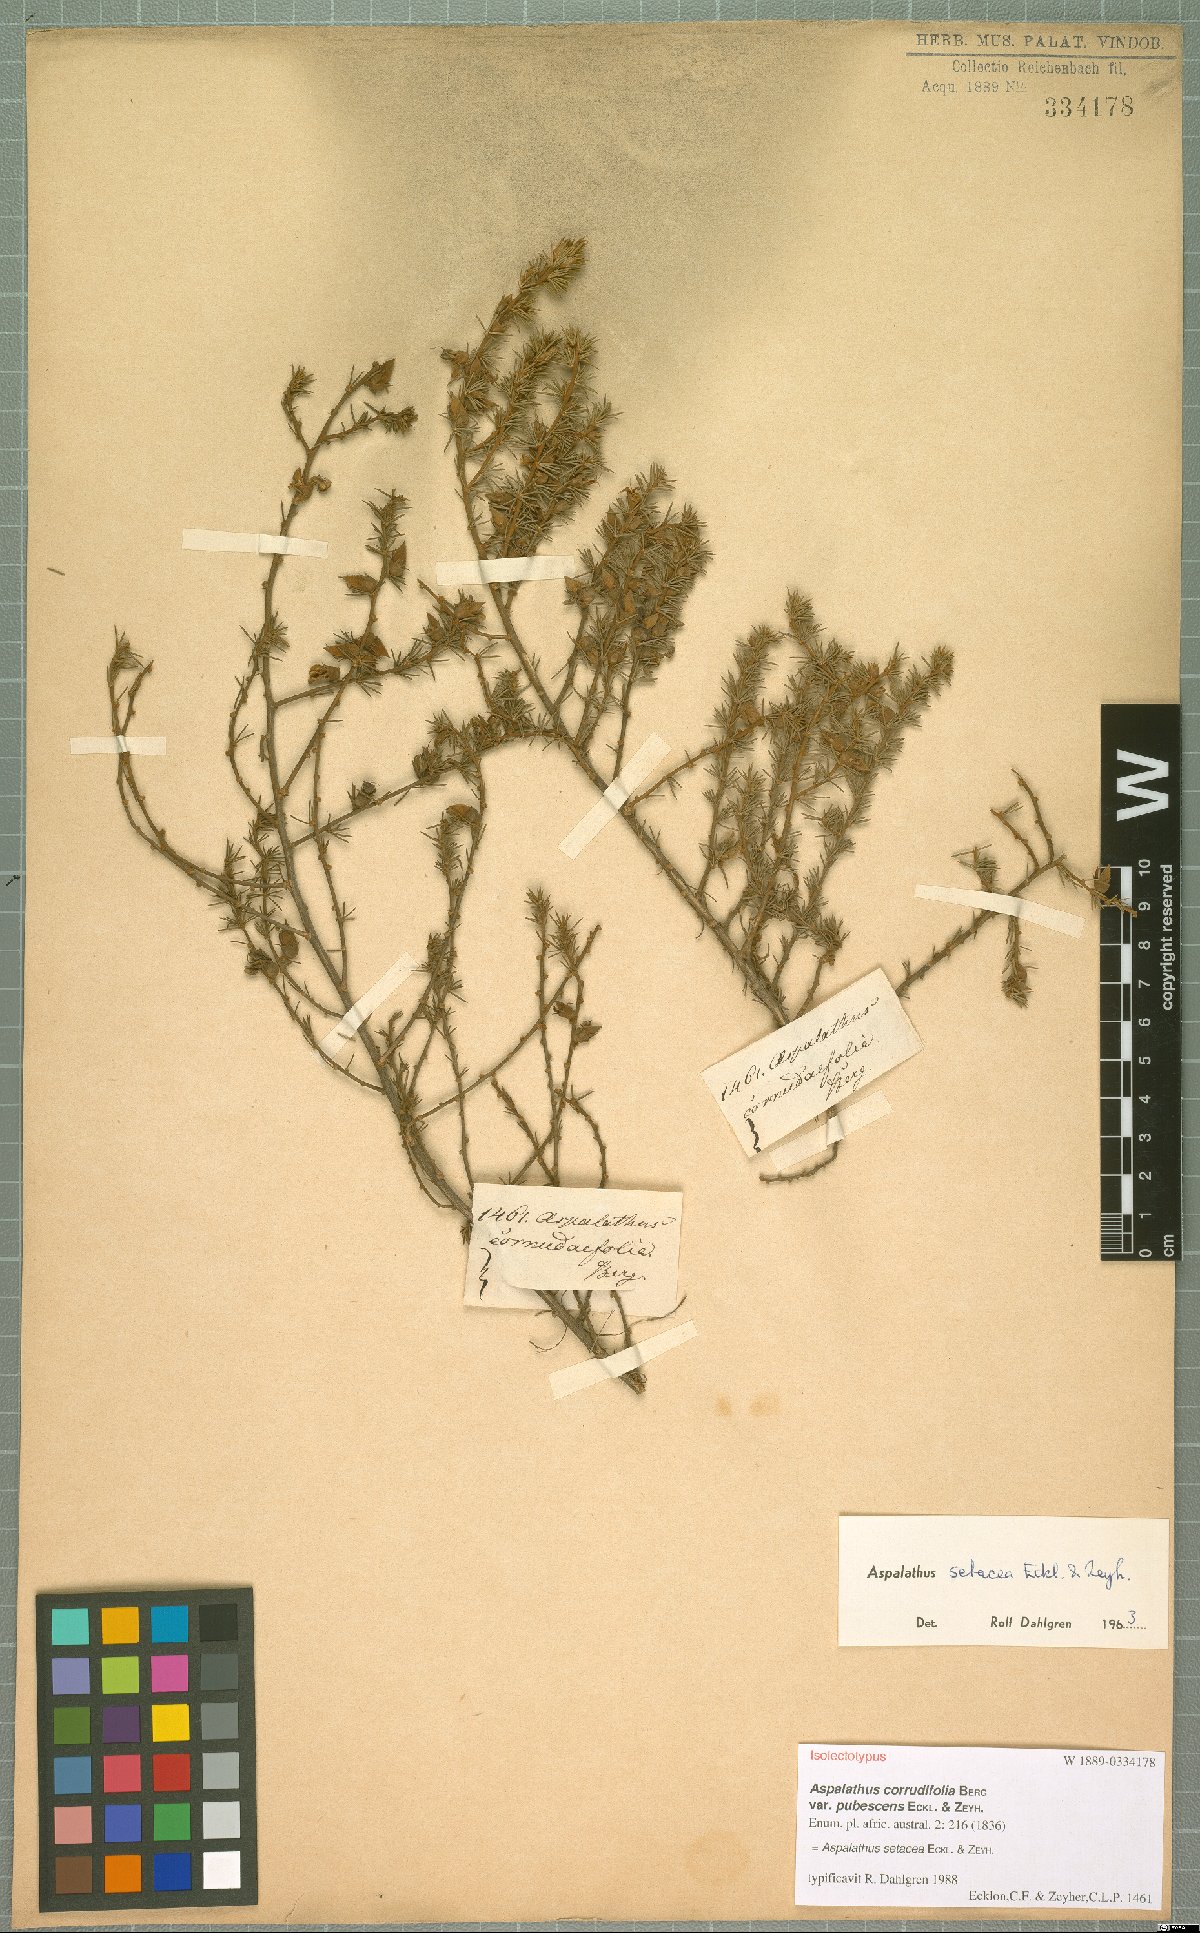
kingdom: Plantae
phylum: Tracheophyta
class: Magnoliopsida
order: Fabales
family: Fabaceae
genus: Aspalathus
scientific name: Aspalathus setacea
